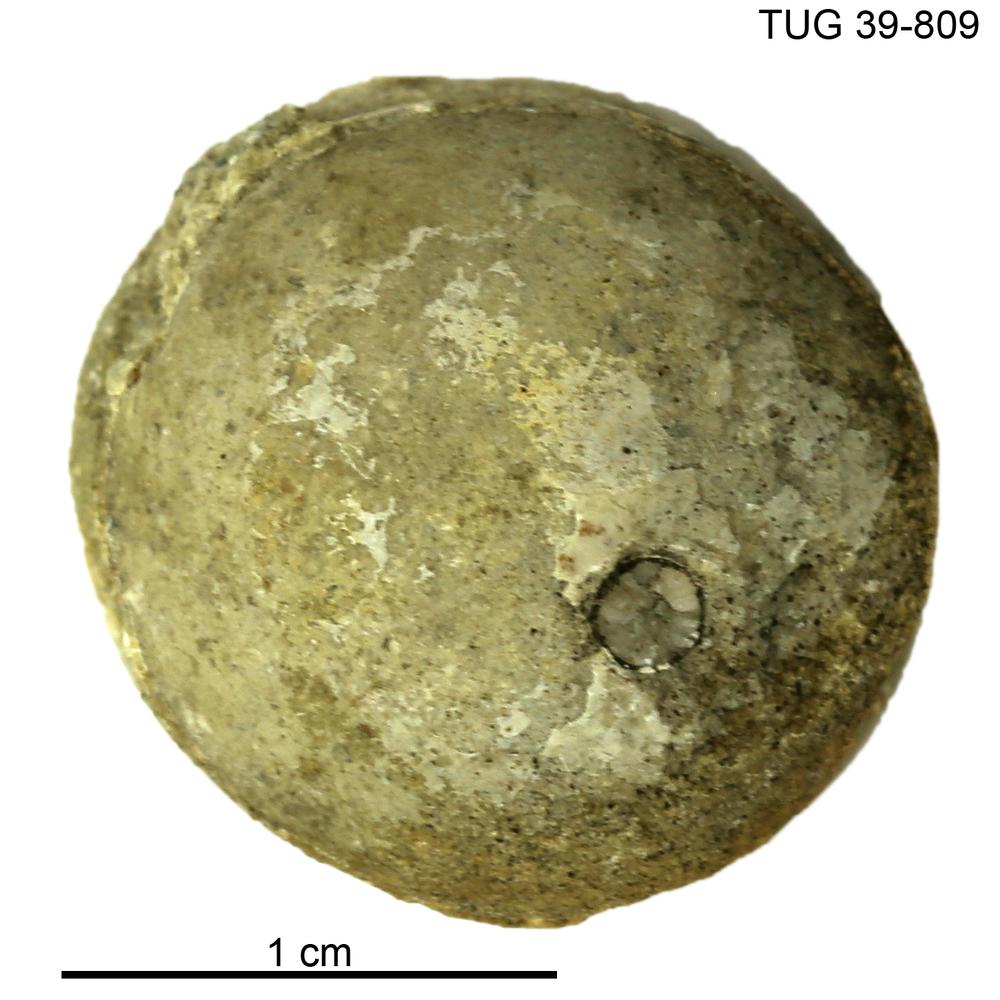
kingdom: Animalia
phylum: Mollusca
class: Cephalopoda
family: Lituitidae
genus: Lituites
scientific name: Lituites lituus
